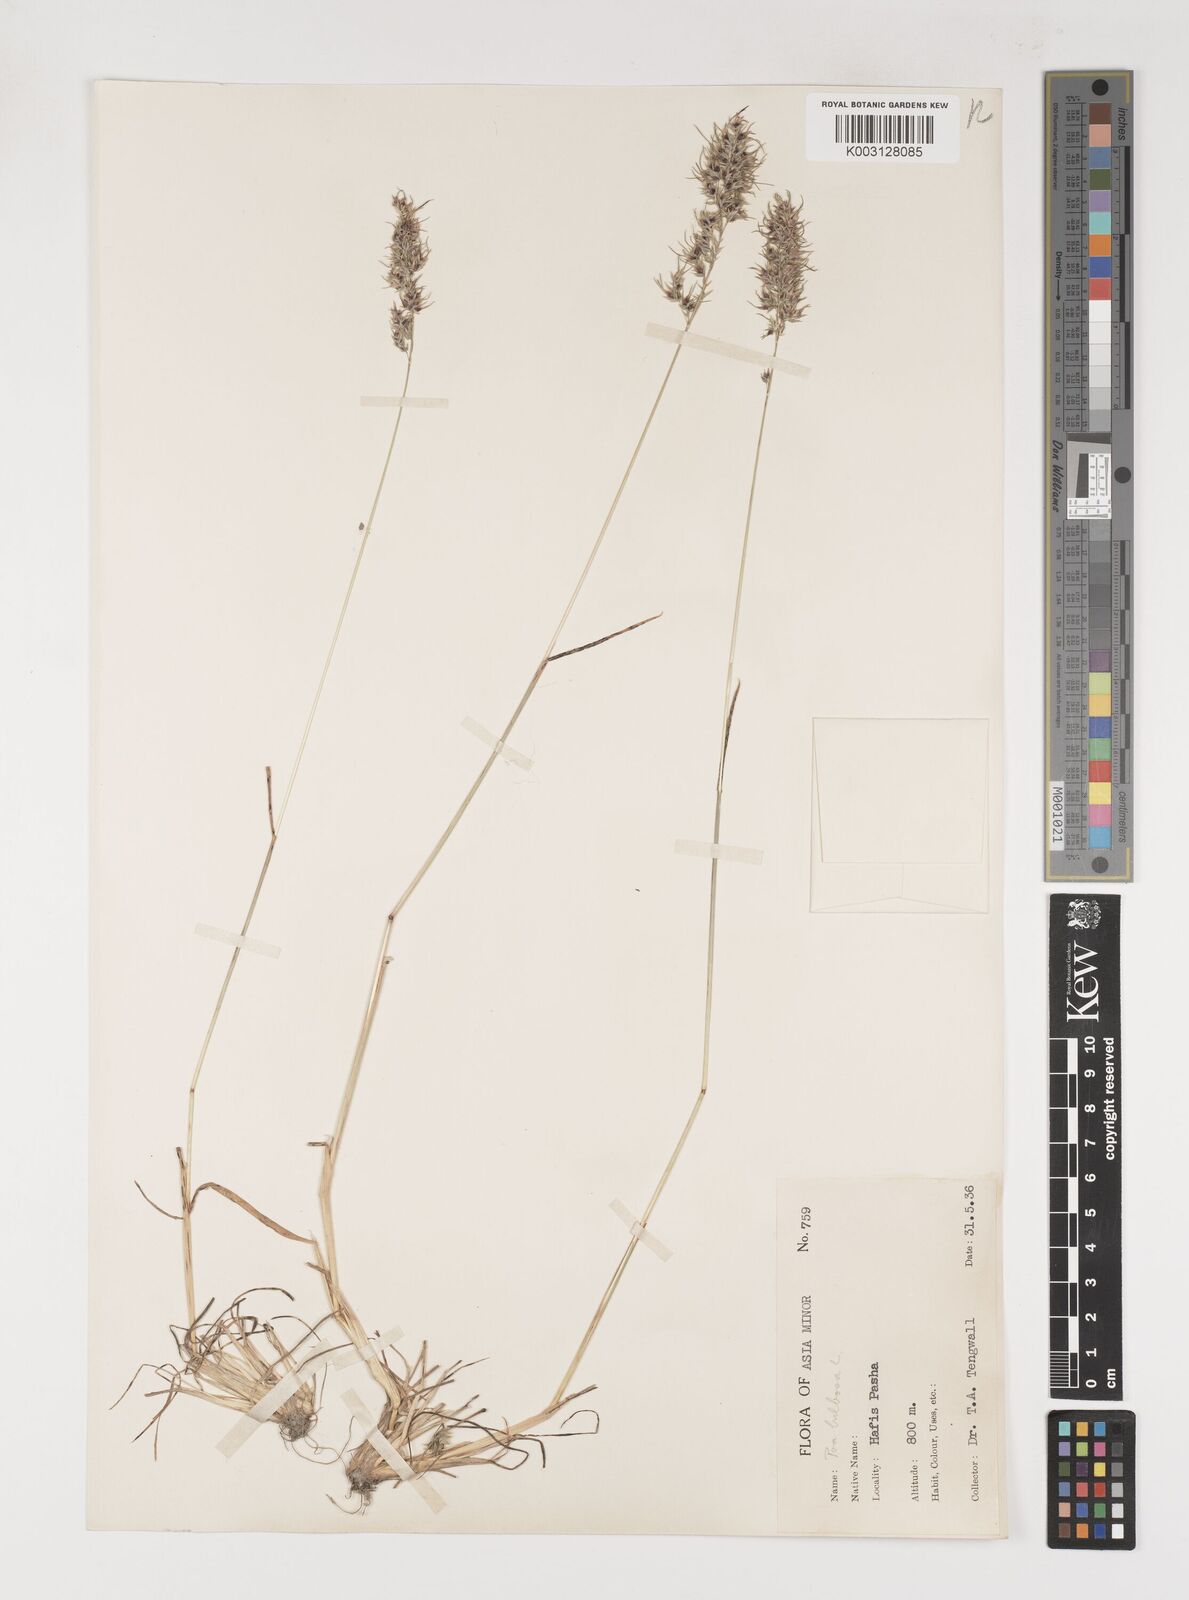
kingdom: Plantae
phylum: Tracheophyta
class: Liliopsida
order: Poales
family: Poaceae
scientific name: Poaceae
